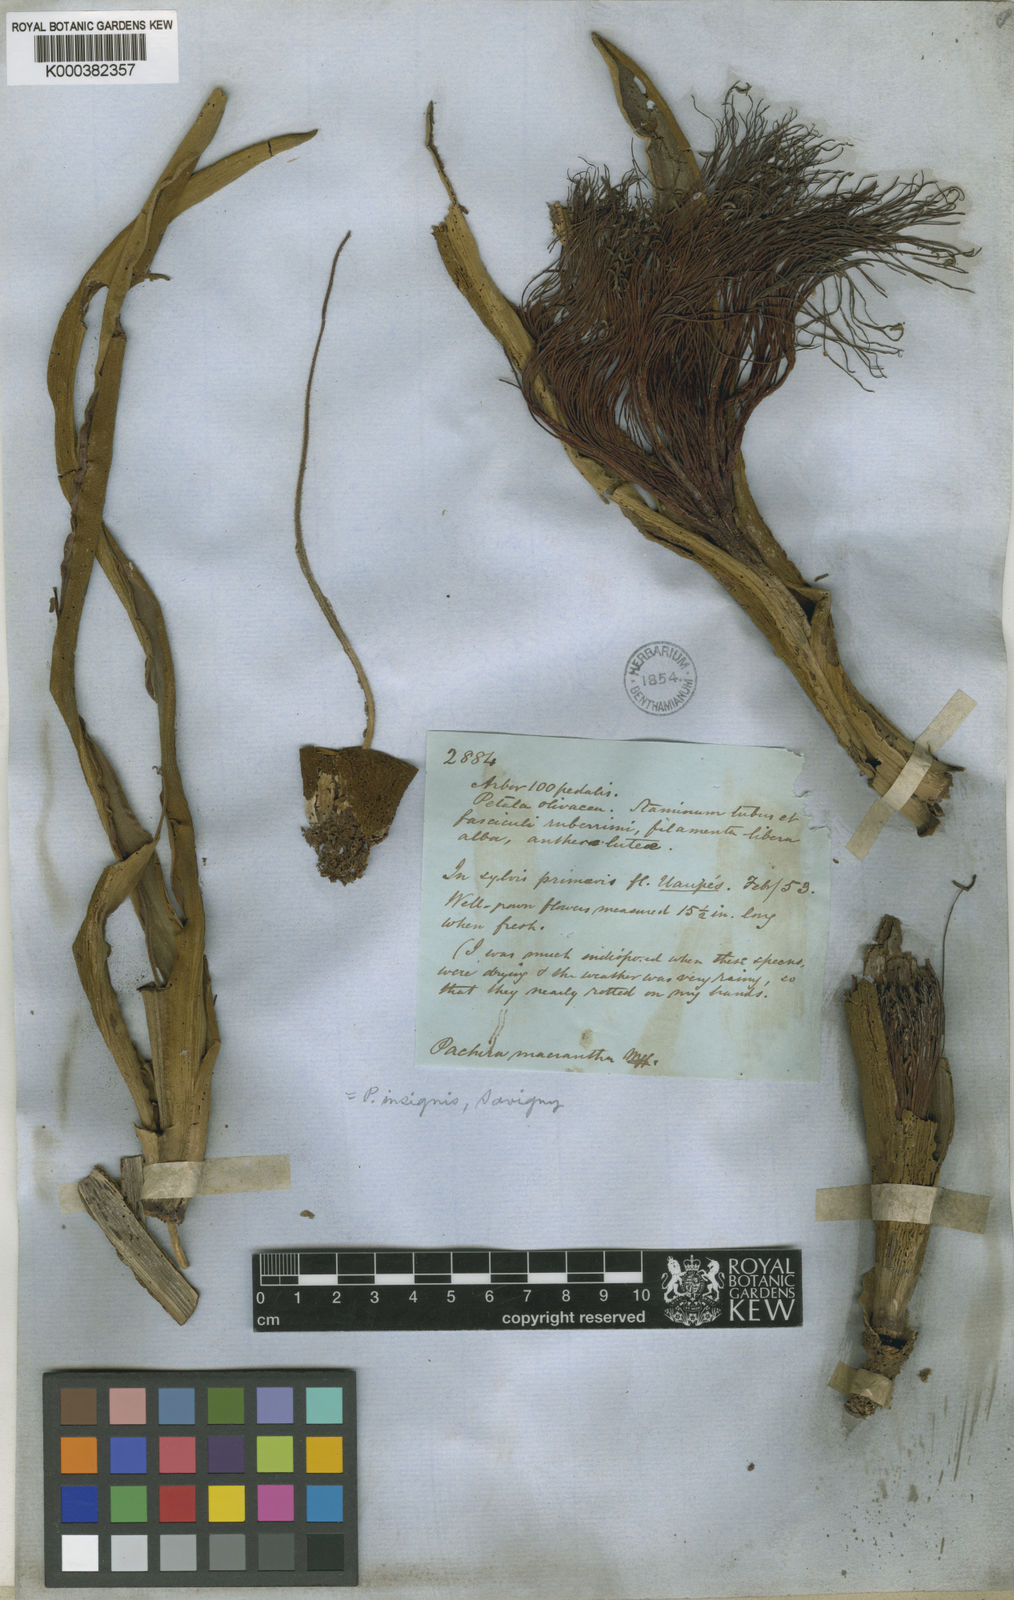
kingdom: Plantae
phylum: Tracheophyta
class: Magnoliopsida
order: Malvales
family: Malvaceae
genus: Pachira
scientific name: Pachira insignis
